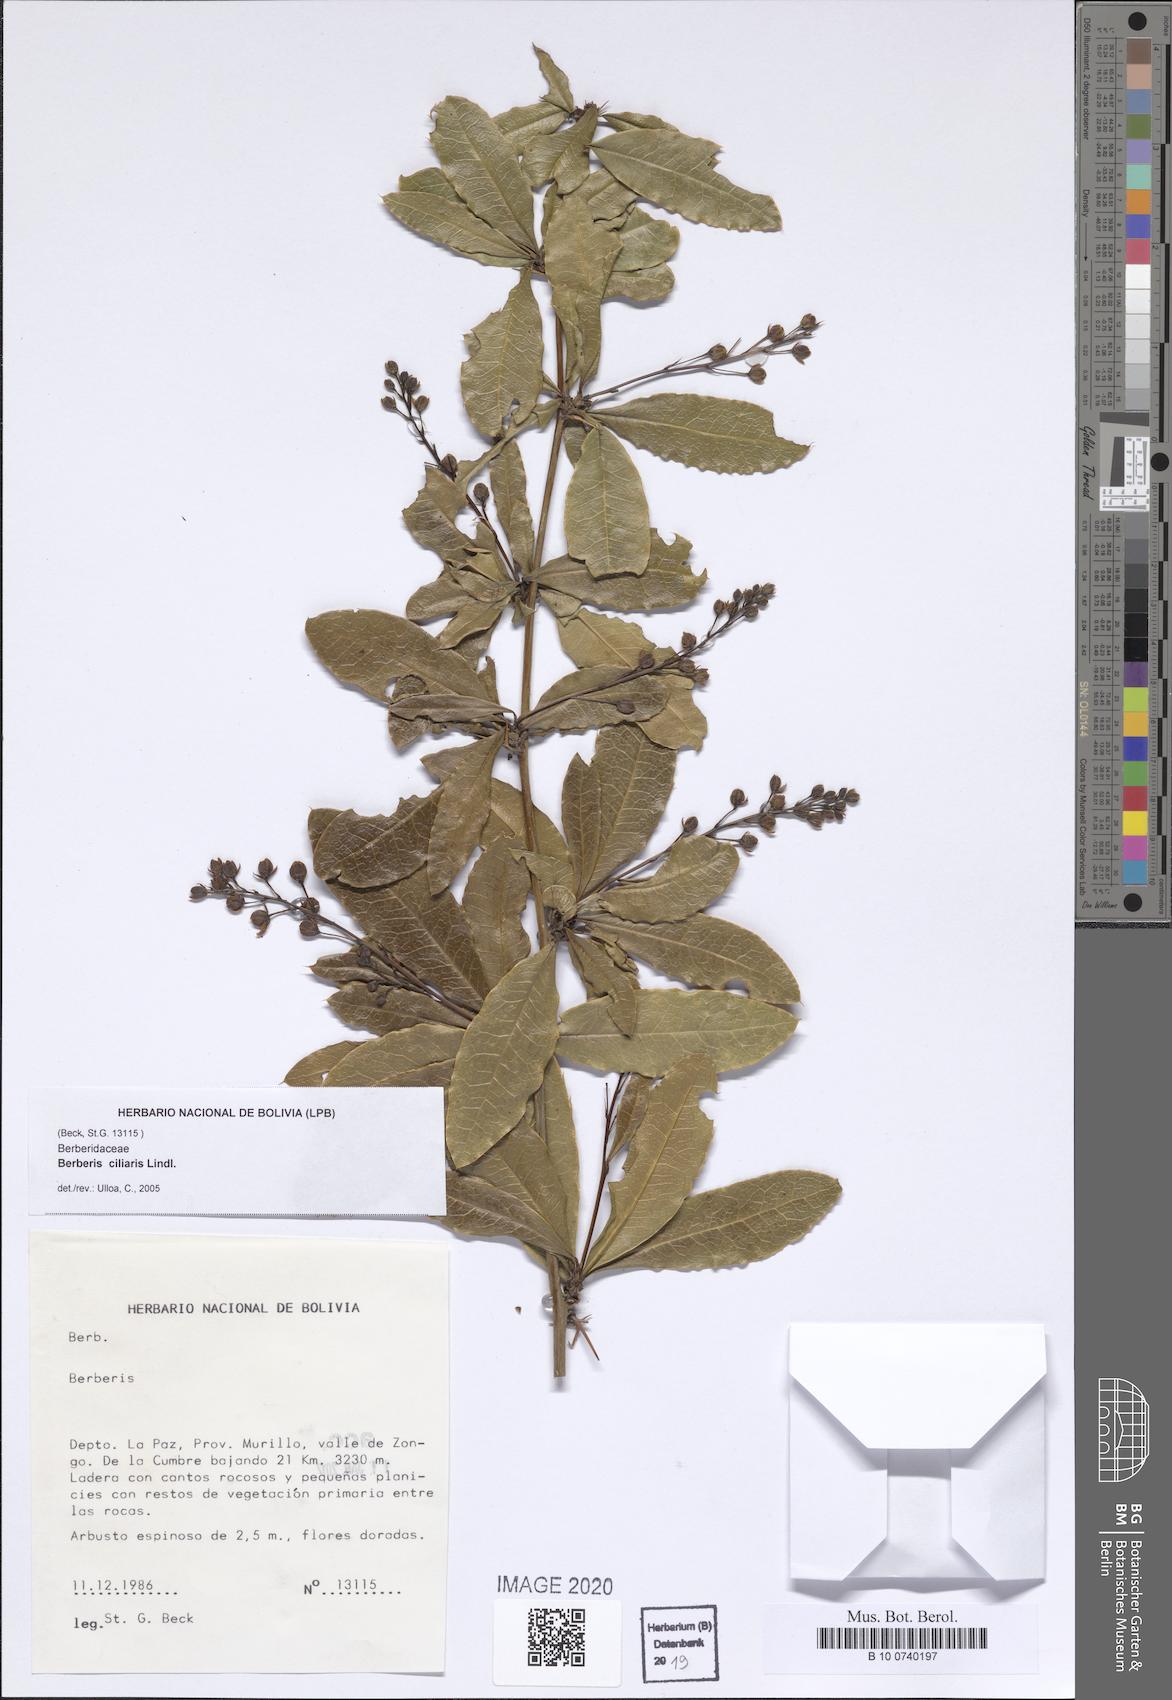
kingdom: Plantae
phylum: Tracheophyta
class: Magnoliopsida
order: Ranunculales
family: Berberidaceae
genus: Berberis
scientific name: Berberis ciliaris
